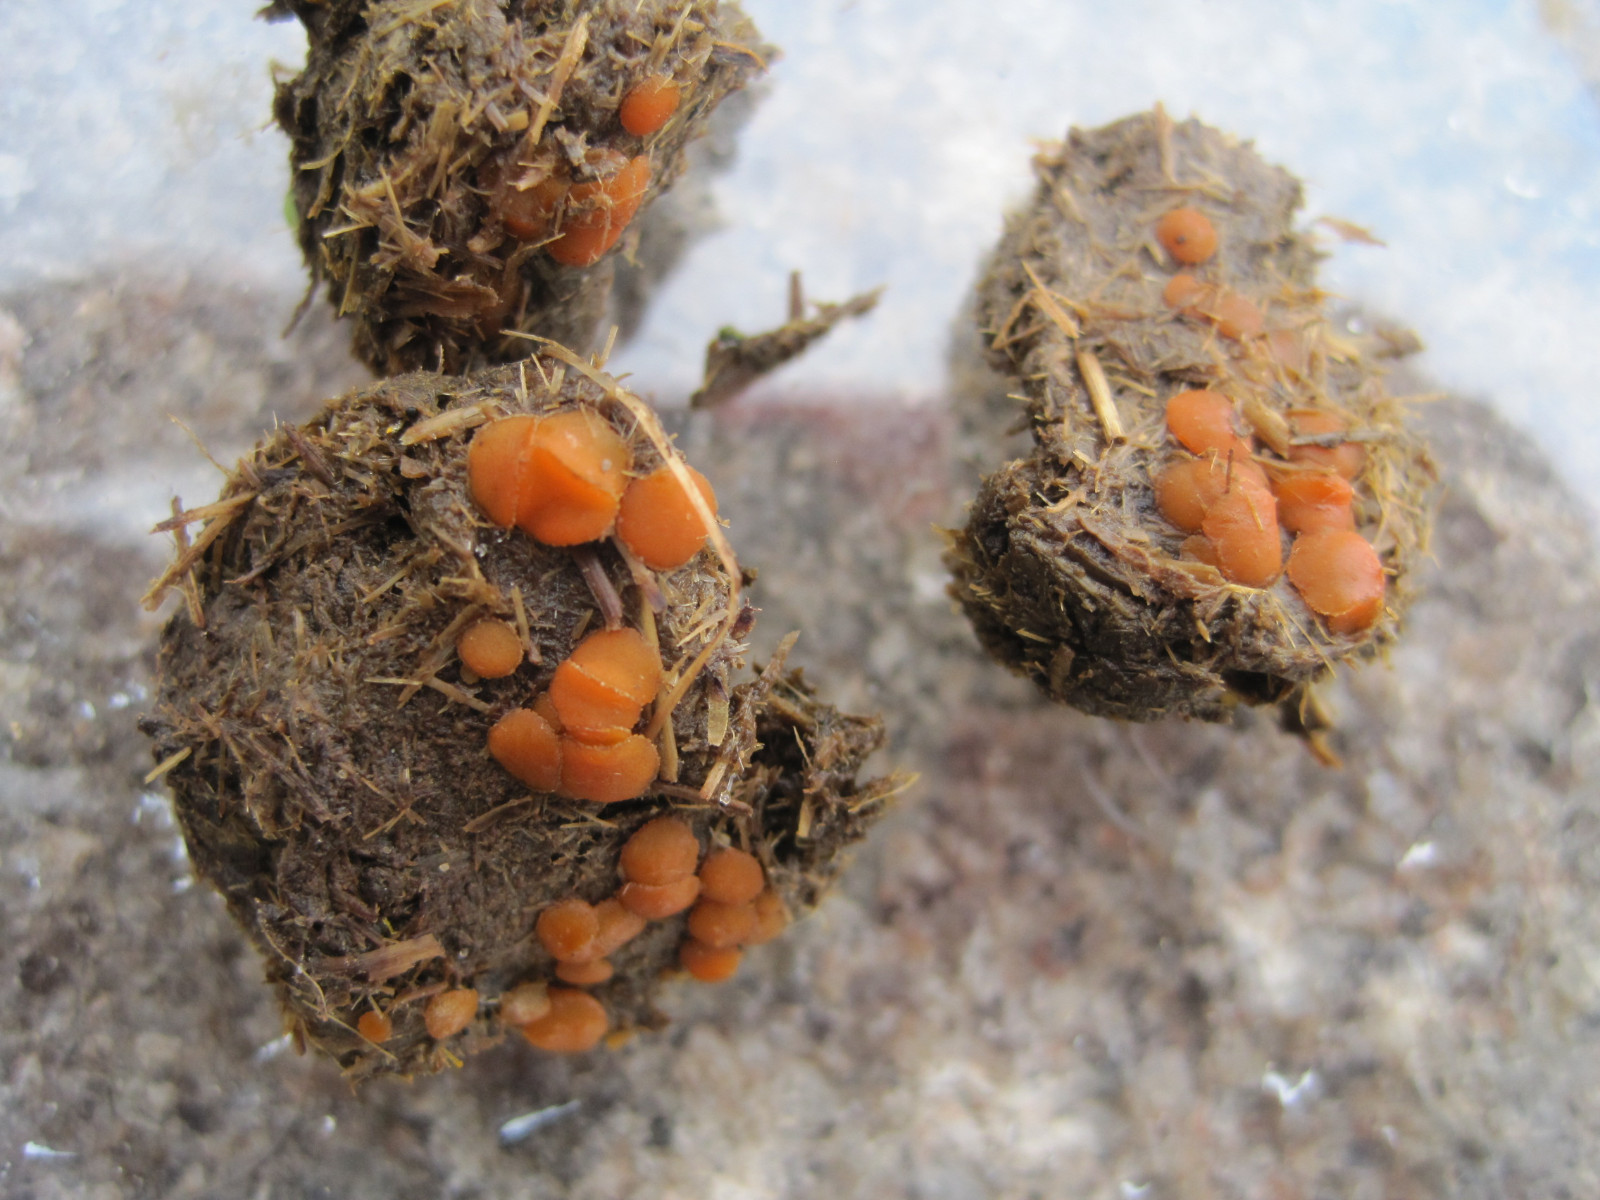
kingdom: Fungi
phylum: Ascomycota
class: Pezizomycetes
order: Pezizales
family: Pyronemataceae
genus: Cheilymenia
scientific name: Cheilymenia granulata
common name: møgbæger
